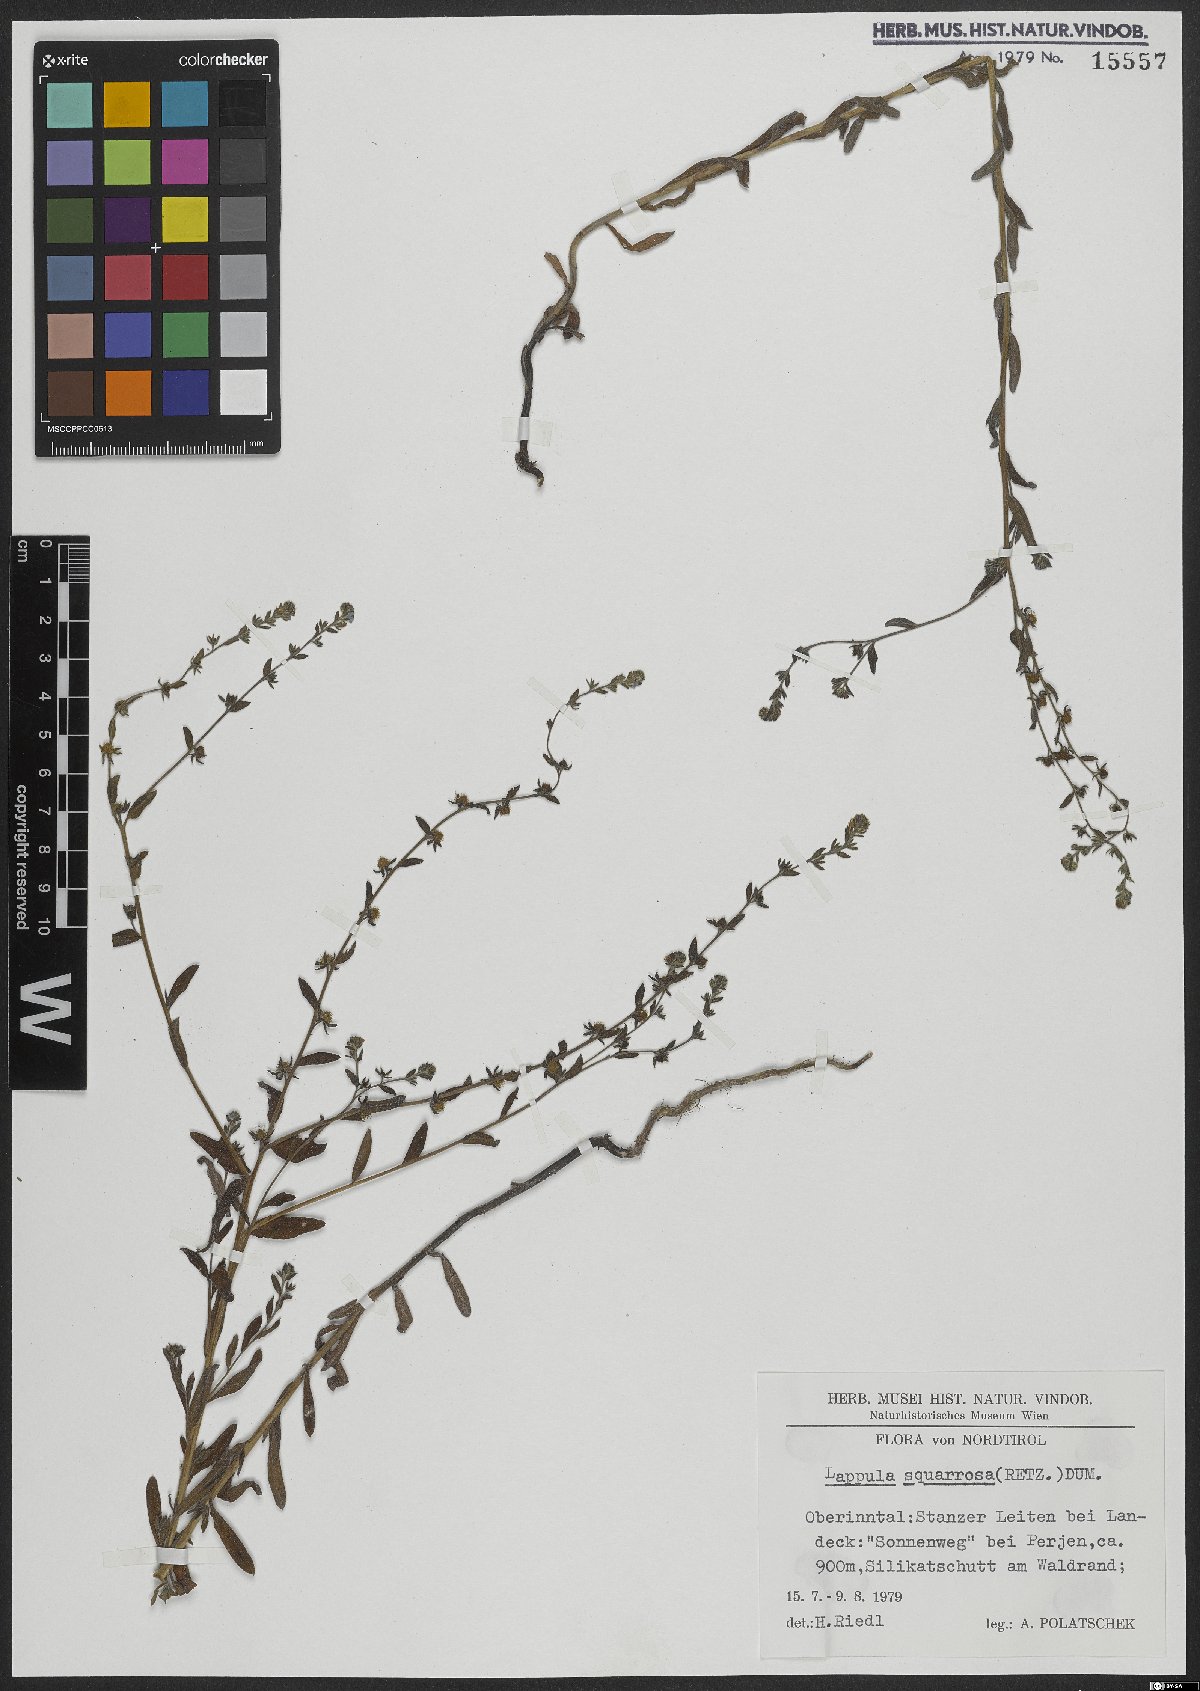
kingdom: Plantae
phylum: Tracheophyta
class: Magnoliopsida
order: Boraginales
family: Boraginaceae
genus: Lappula
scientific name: Lappula squarrosa
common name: European stickseed
